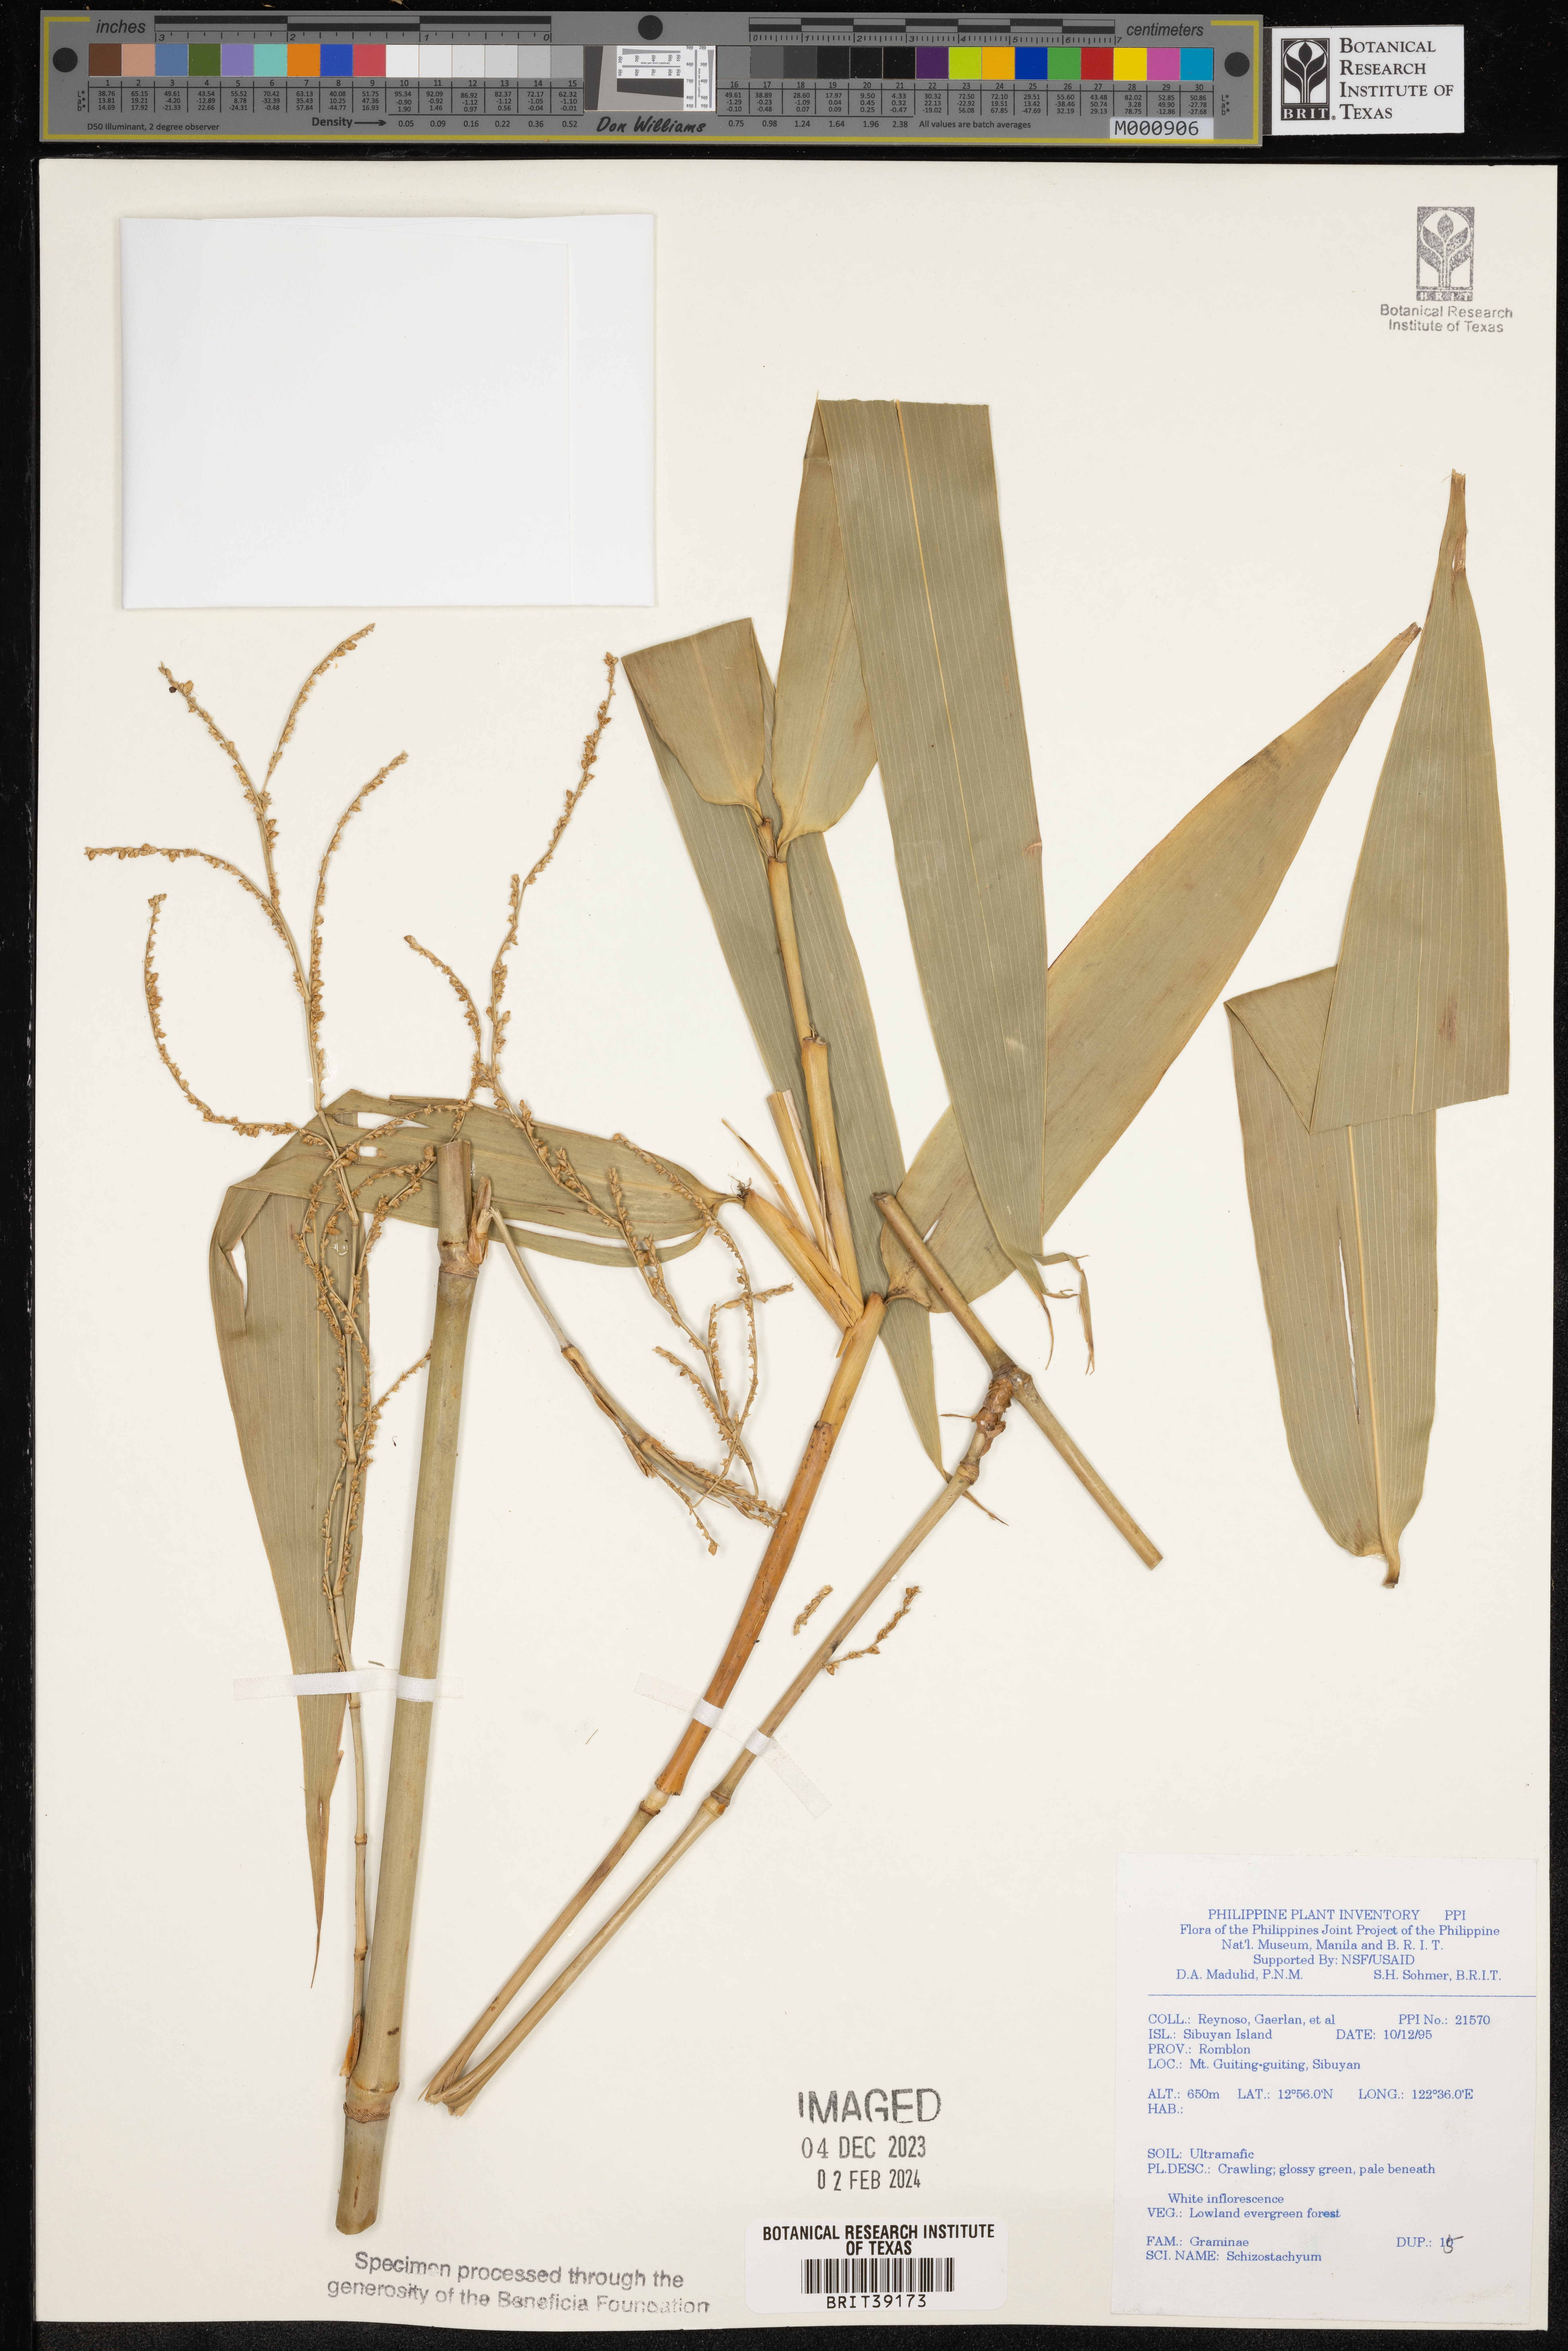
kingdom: Plantae
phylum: Tracheophyta
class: Liliopsida
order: Poales
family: Poaceae
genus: Schizostachyum
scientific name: Schizostachyum
